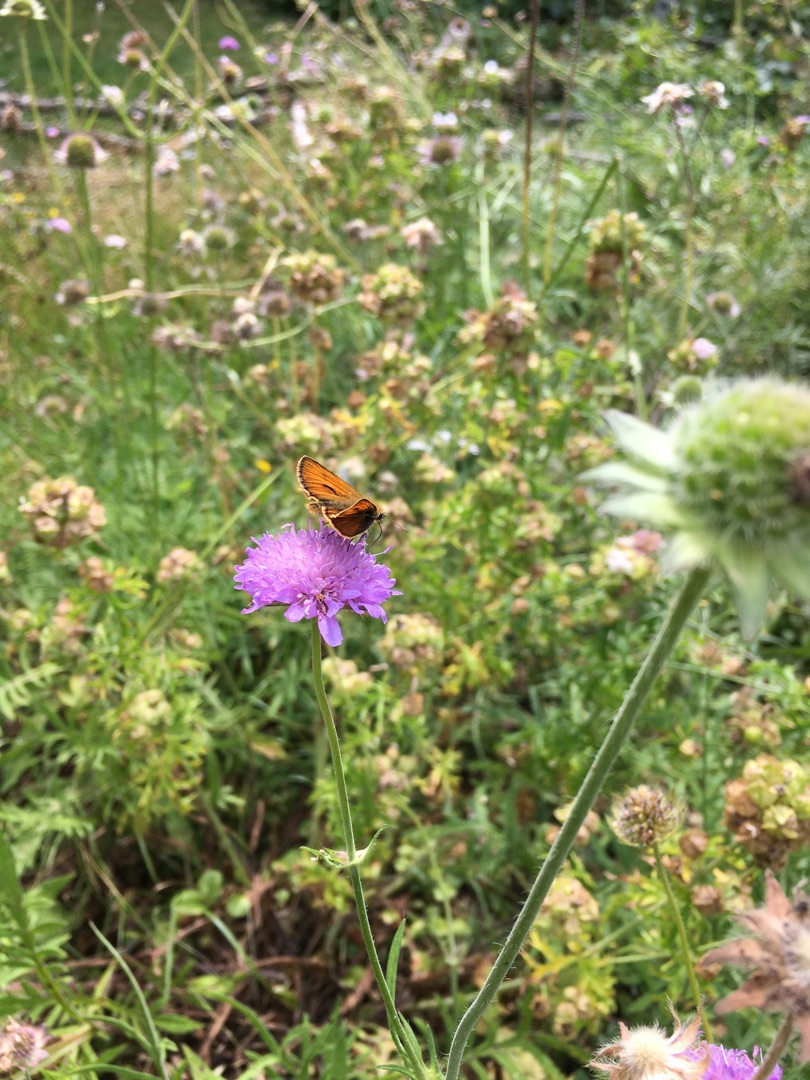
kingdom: Animalia
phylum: Arthropoda
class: Insecta
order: Lepidoptera
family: Hesperiidae
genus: Thymelicus
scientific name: Thymelicus sylvestris
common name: Skråstregbredpande
